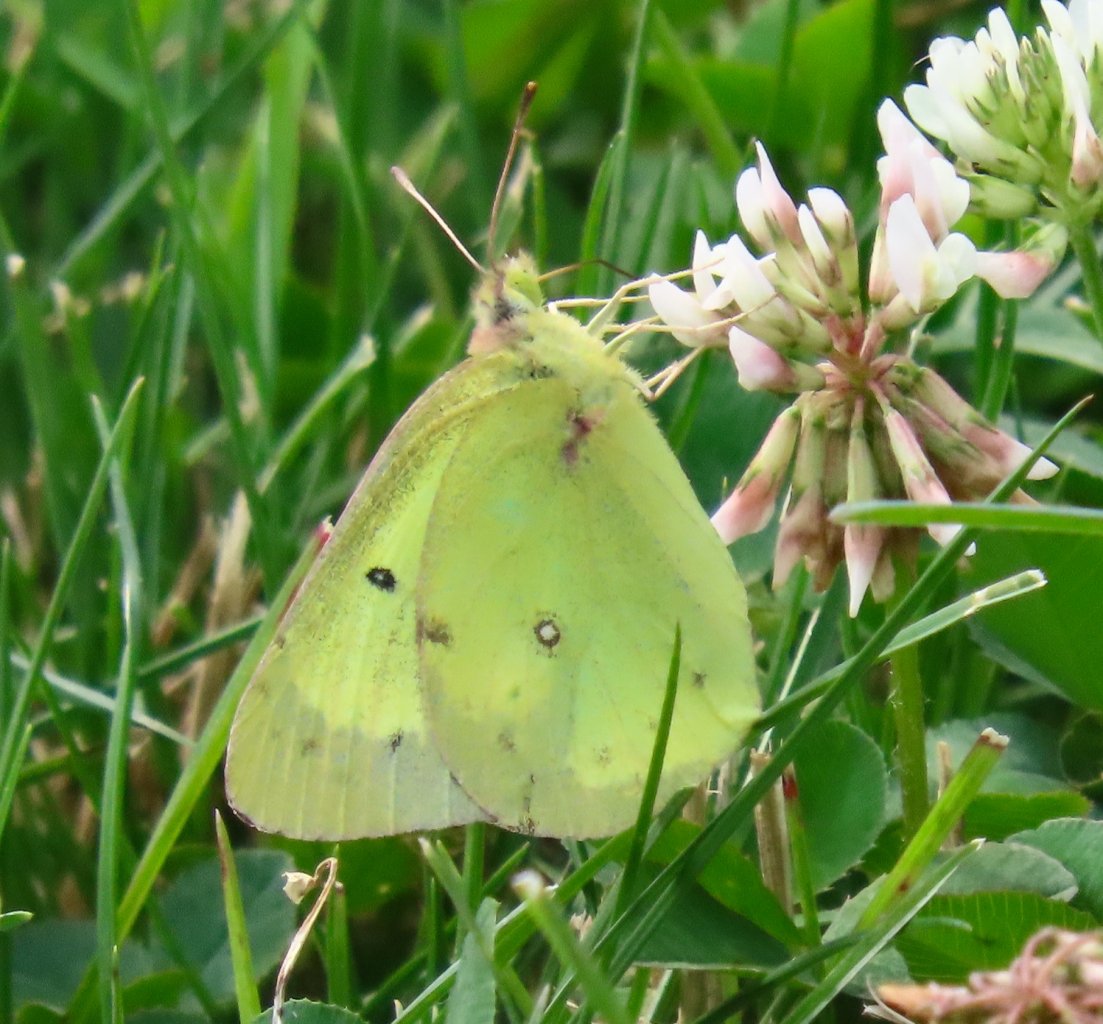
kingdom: Animalia
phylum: Arthropoda
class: Insecta
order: Lepidoptera
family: Pieridae
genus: Colias
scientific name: Colias philodice
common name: Clouded Sulphur
